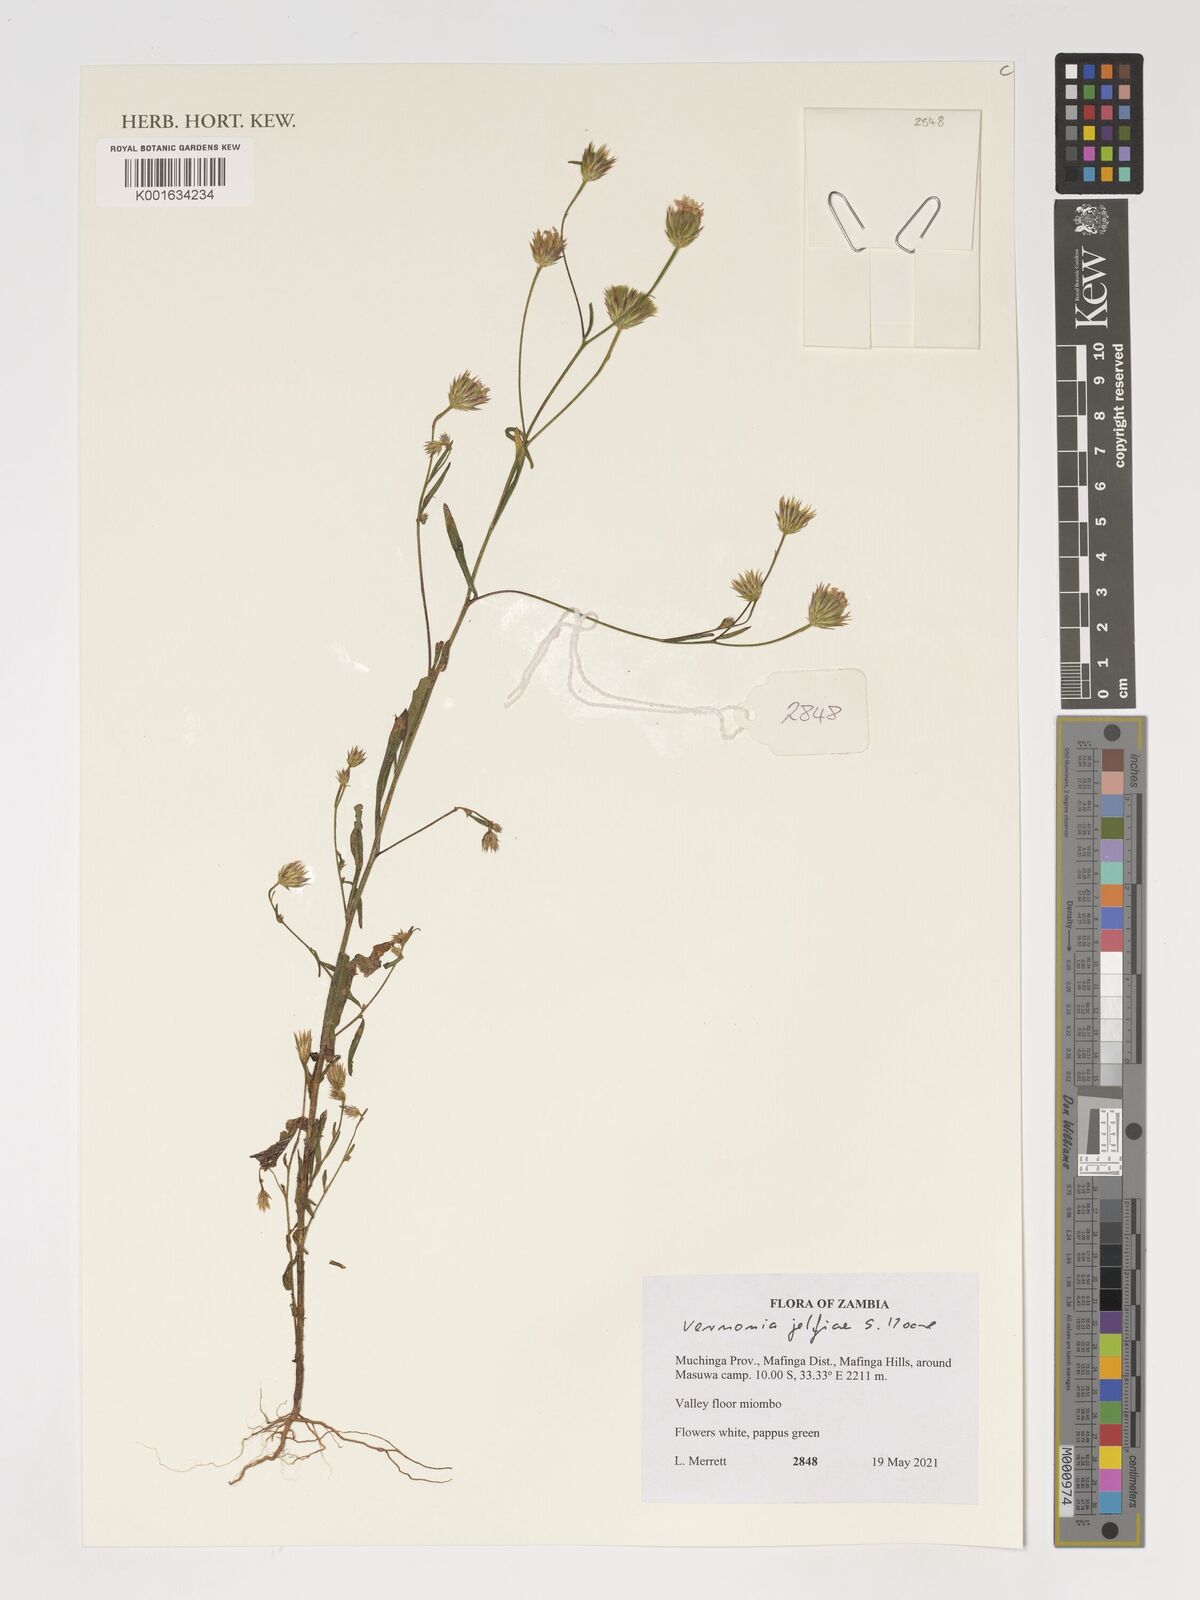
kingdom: Plantae
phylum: Tracheophyta
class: Magnoliopsida
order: Asterales
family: Asteraceae
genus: Crystallopollen
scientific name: Crystallopollen jelfiae
